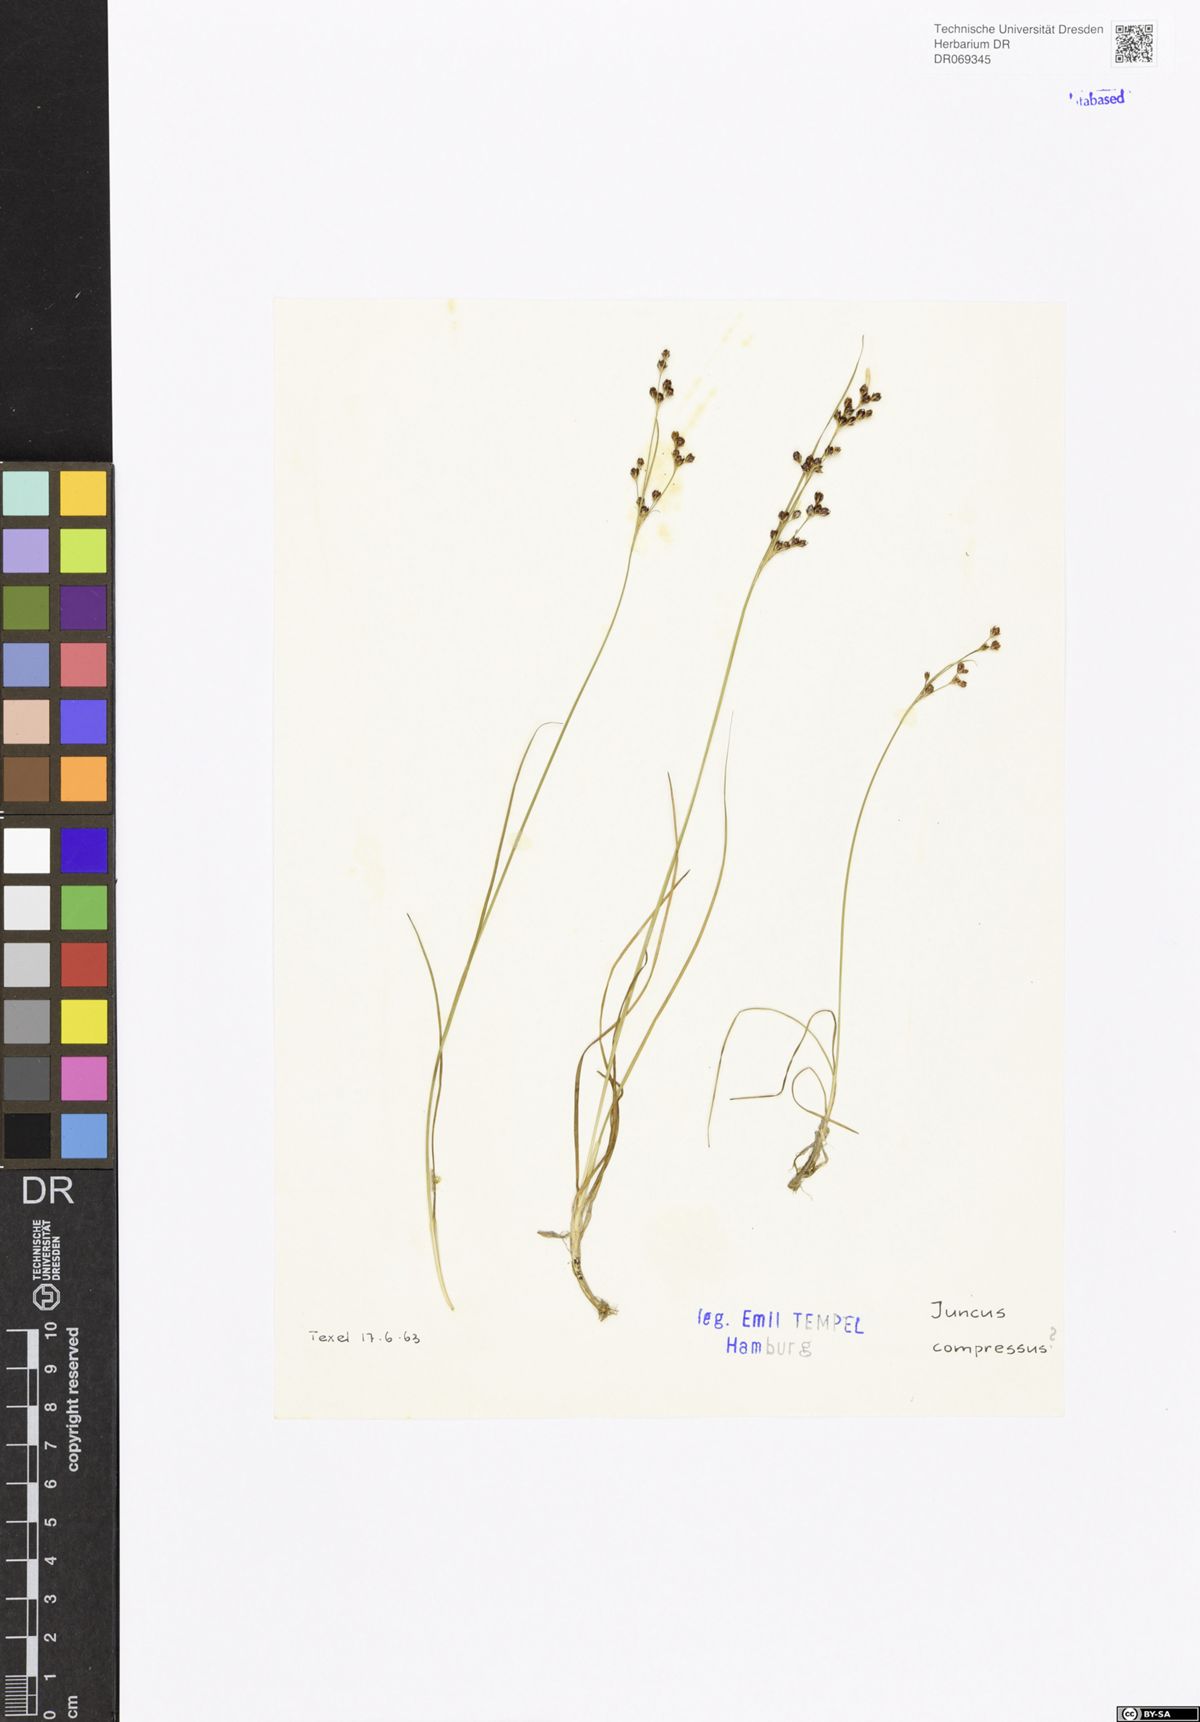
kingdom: Plantae
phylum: Tracheophyta
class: Liliopsida
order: Poales
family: Juncaceae
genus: Juncus
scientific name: Juncus compressus
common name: Round-fruited rush
